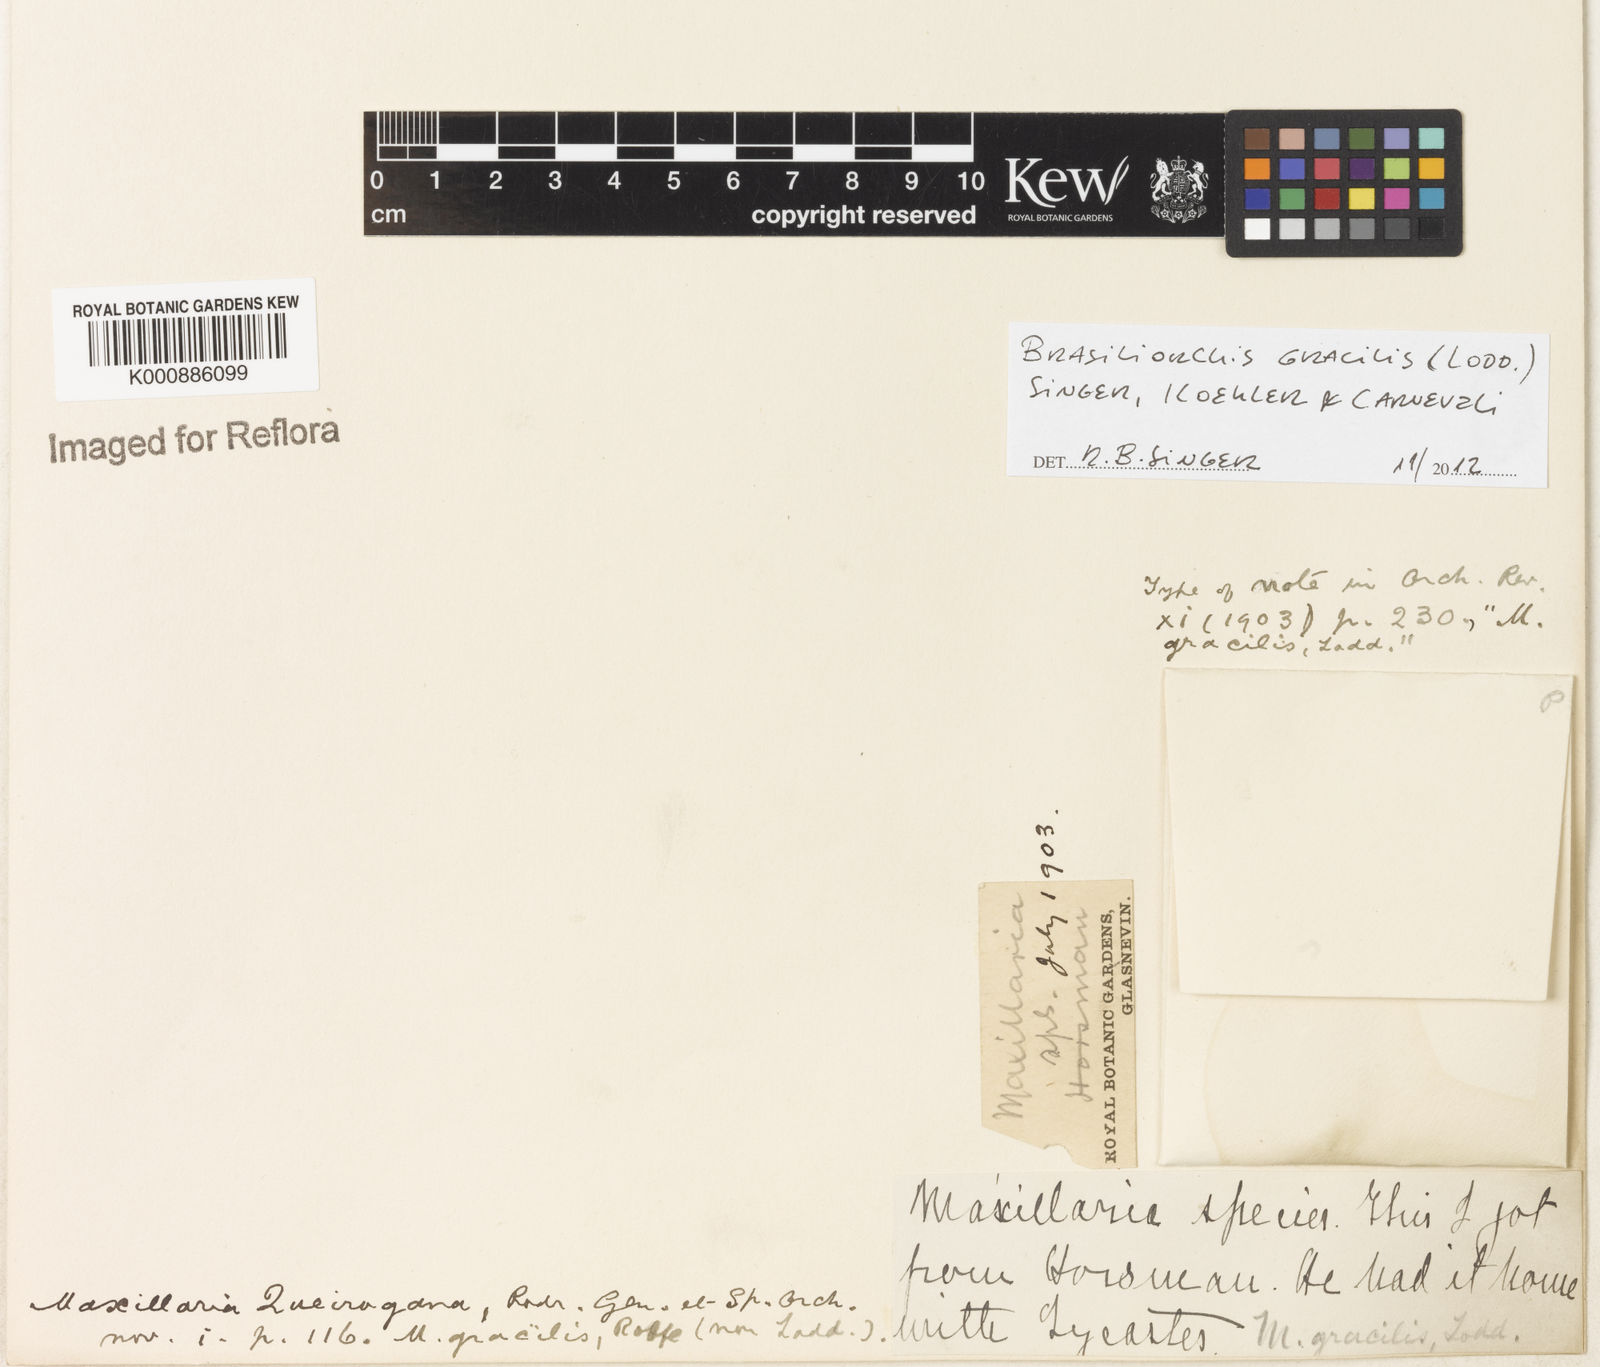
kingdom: Plantae
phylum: Tracheophyta
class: Liliopsida
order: Asparagales
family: Orchidaceae
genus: Maxillaria
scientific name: Maxillaria
